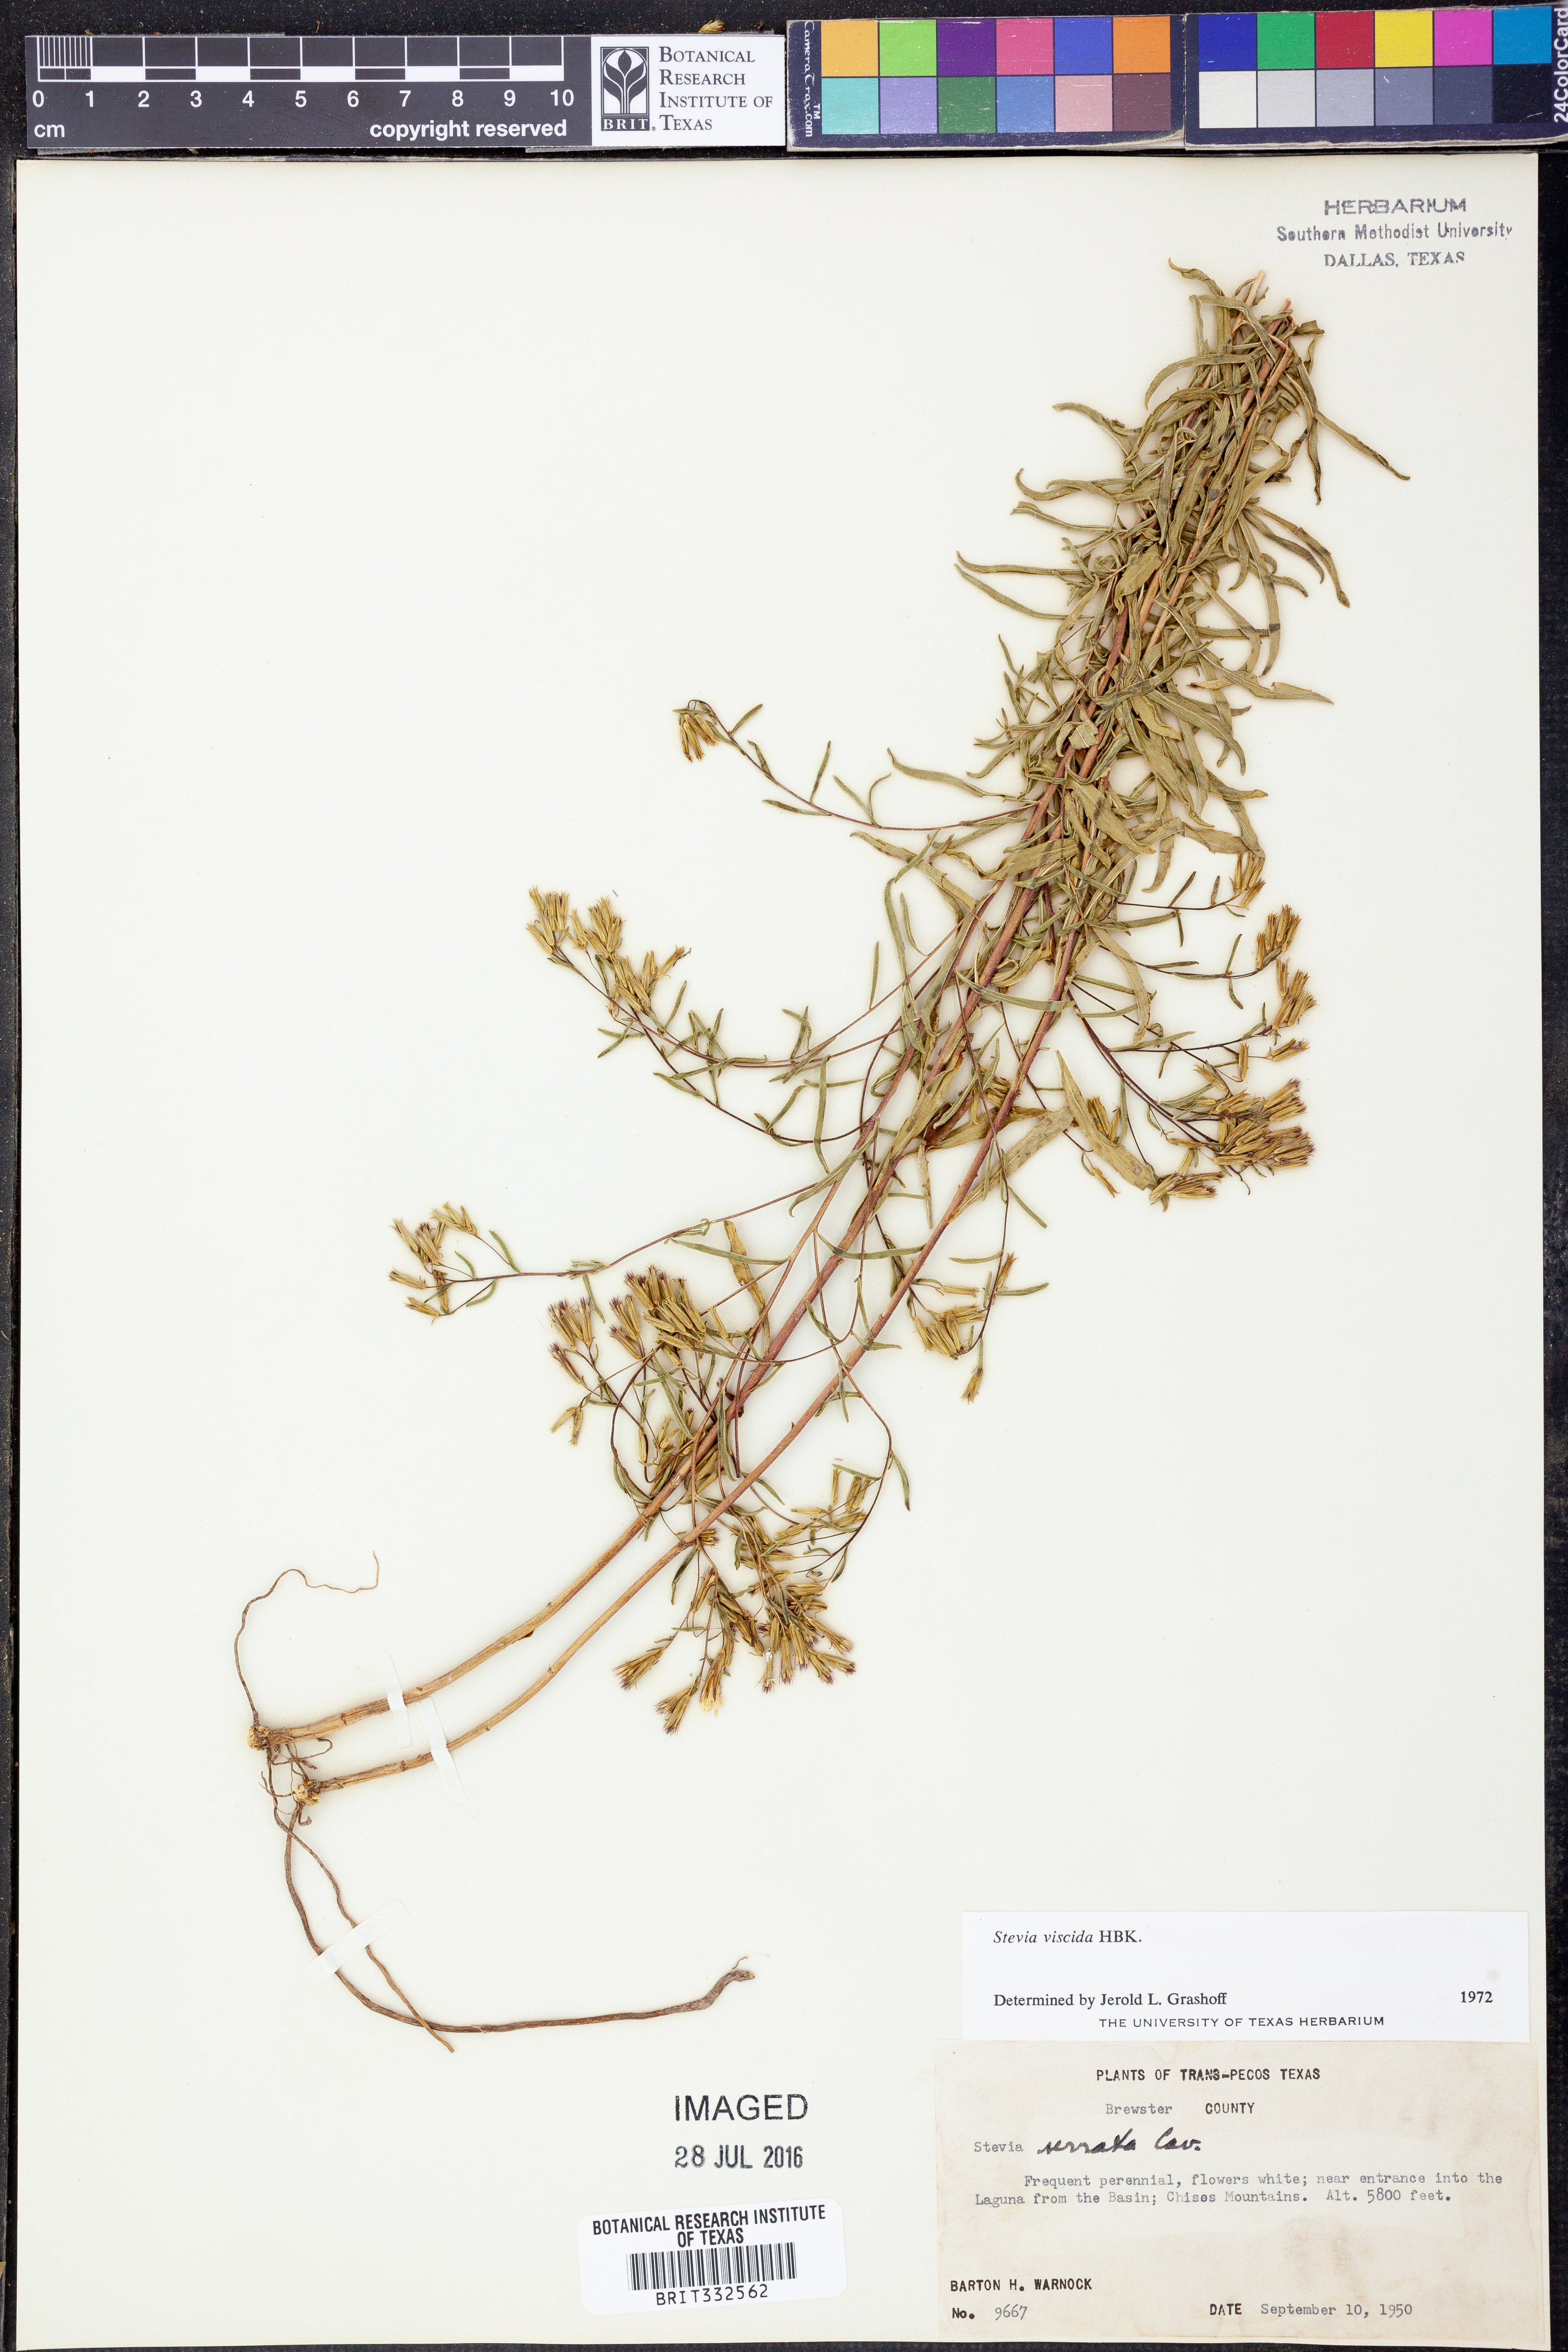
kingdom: Plantae
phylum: Tracheophyta
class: Magnoliopsida
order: Asterales
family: Asteraceae
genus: Stevia
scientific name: Stevia viscida
